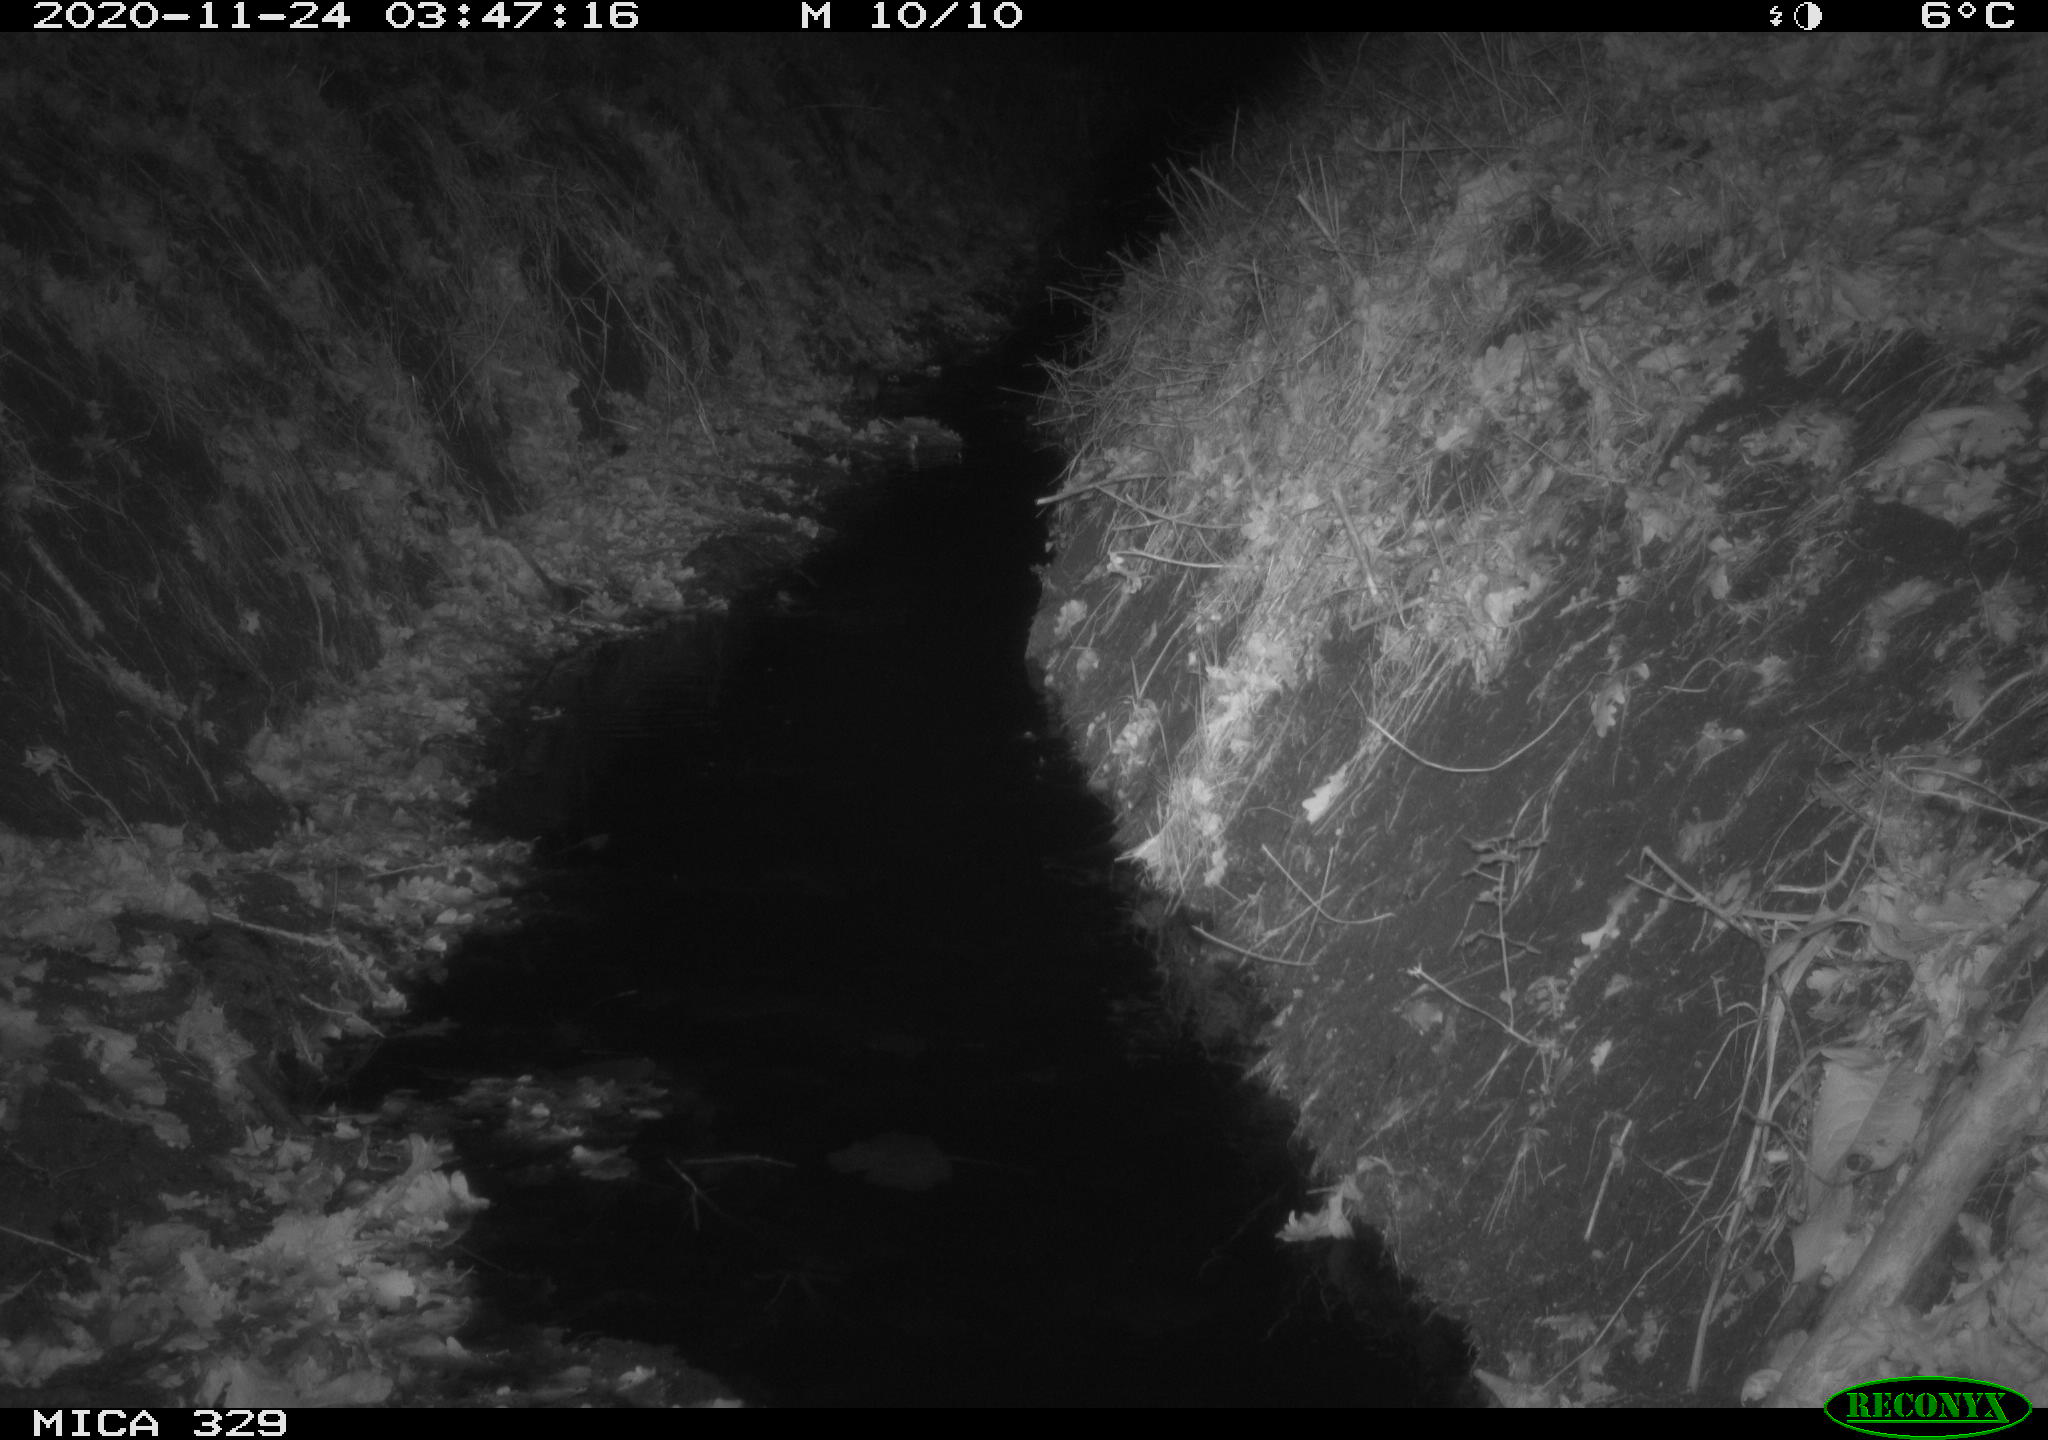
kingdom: Animalia
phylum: Chordata
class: Mammalia
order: Rodentia
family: Muridae
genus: Rattus
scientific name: Rattus norvegicus
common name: Brown rat
